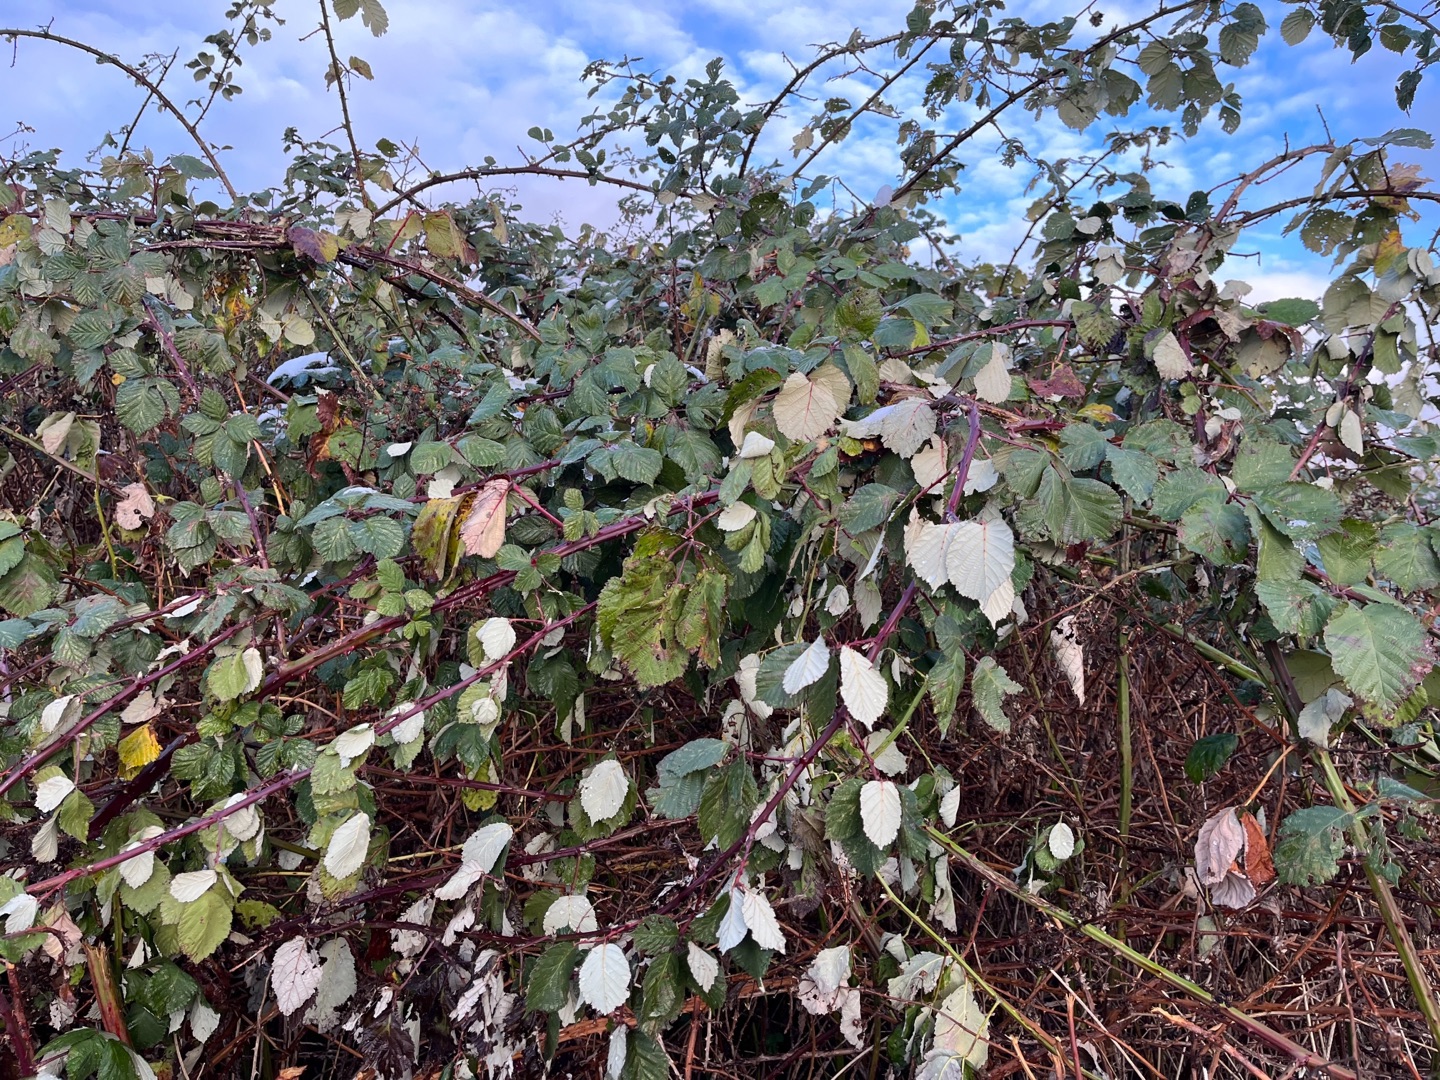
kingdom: Plantae
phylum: Tracheophyta
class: Magnoliopsida
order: Rosales
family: Rosaceae
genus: Rubus
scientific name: Rubus armeniacus
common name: Armensk brombær
